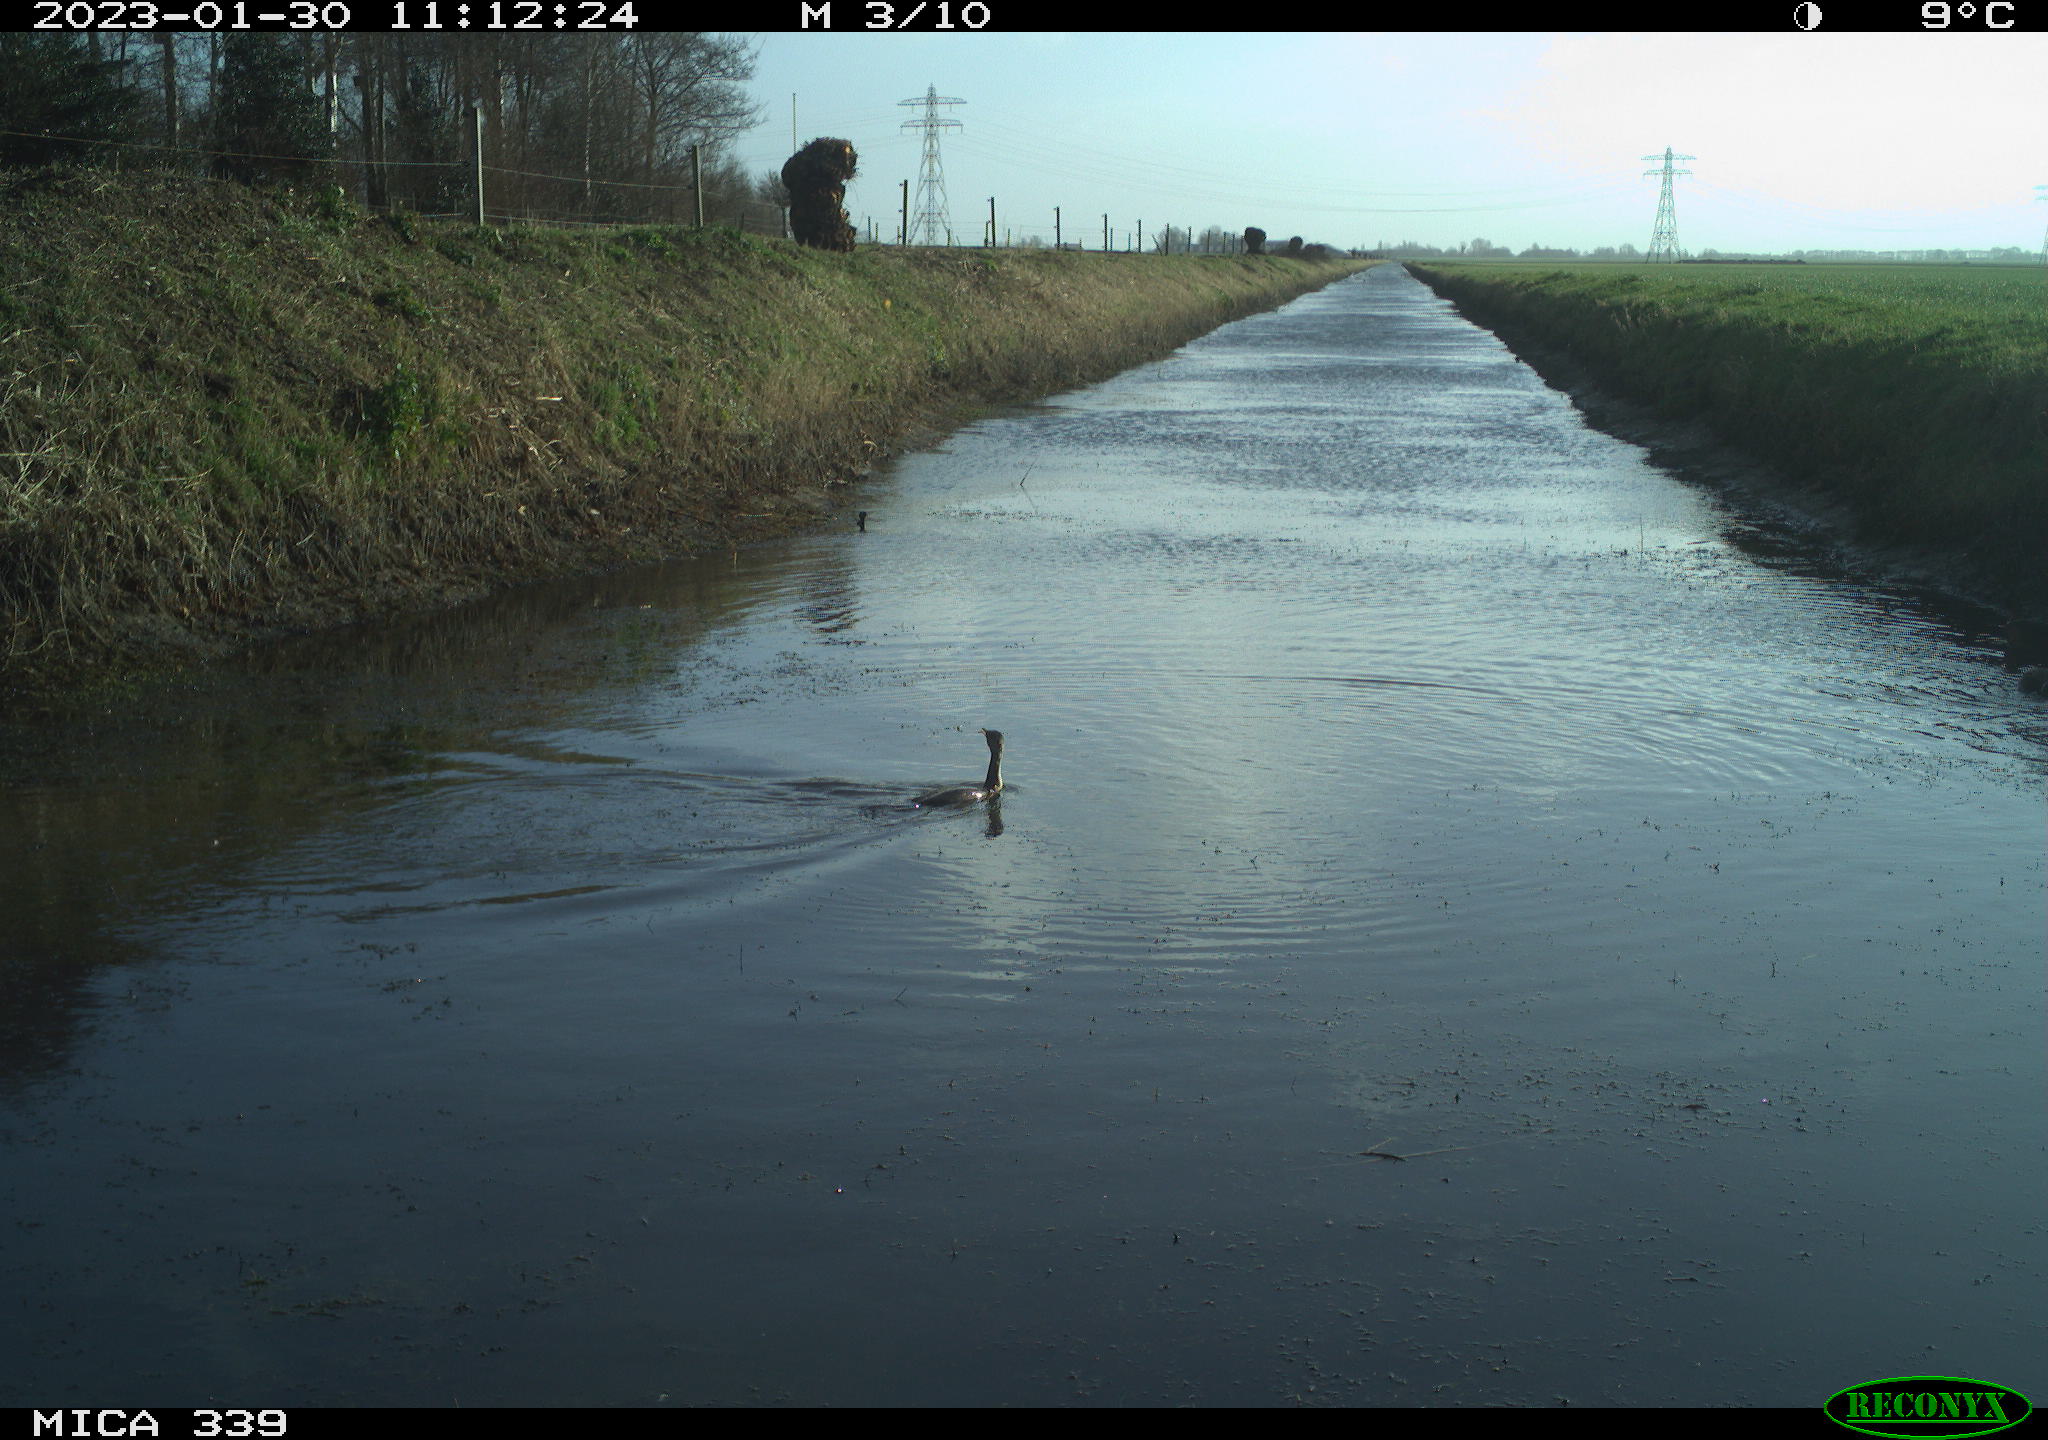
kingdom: Animalia
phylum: Chordata
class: Aves
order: Suliformes
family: Phalacrocoracidae
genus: Phalacrocorax
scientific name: Phalacrocorax carbo
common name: Great cormorant
